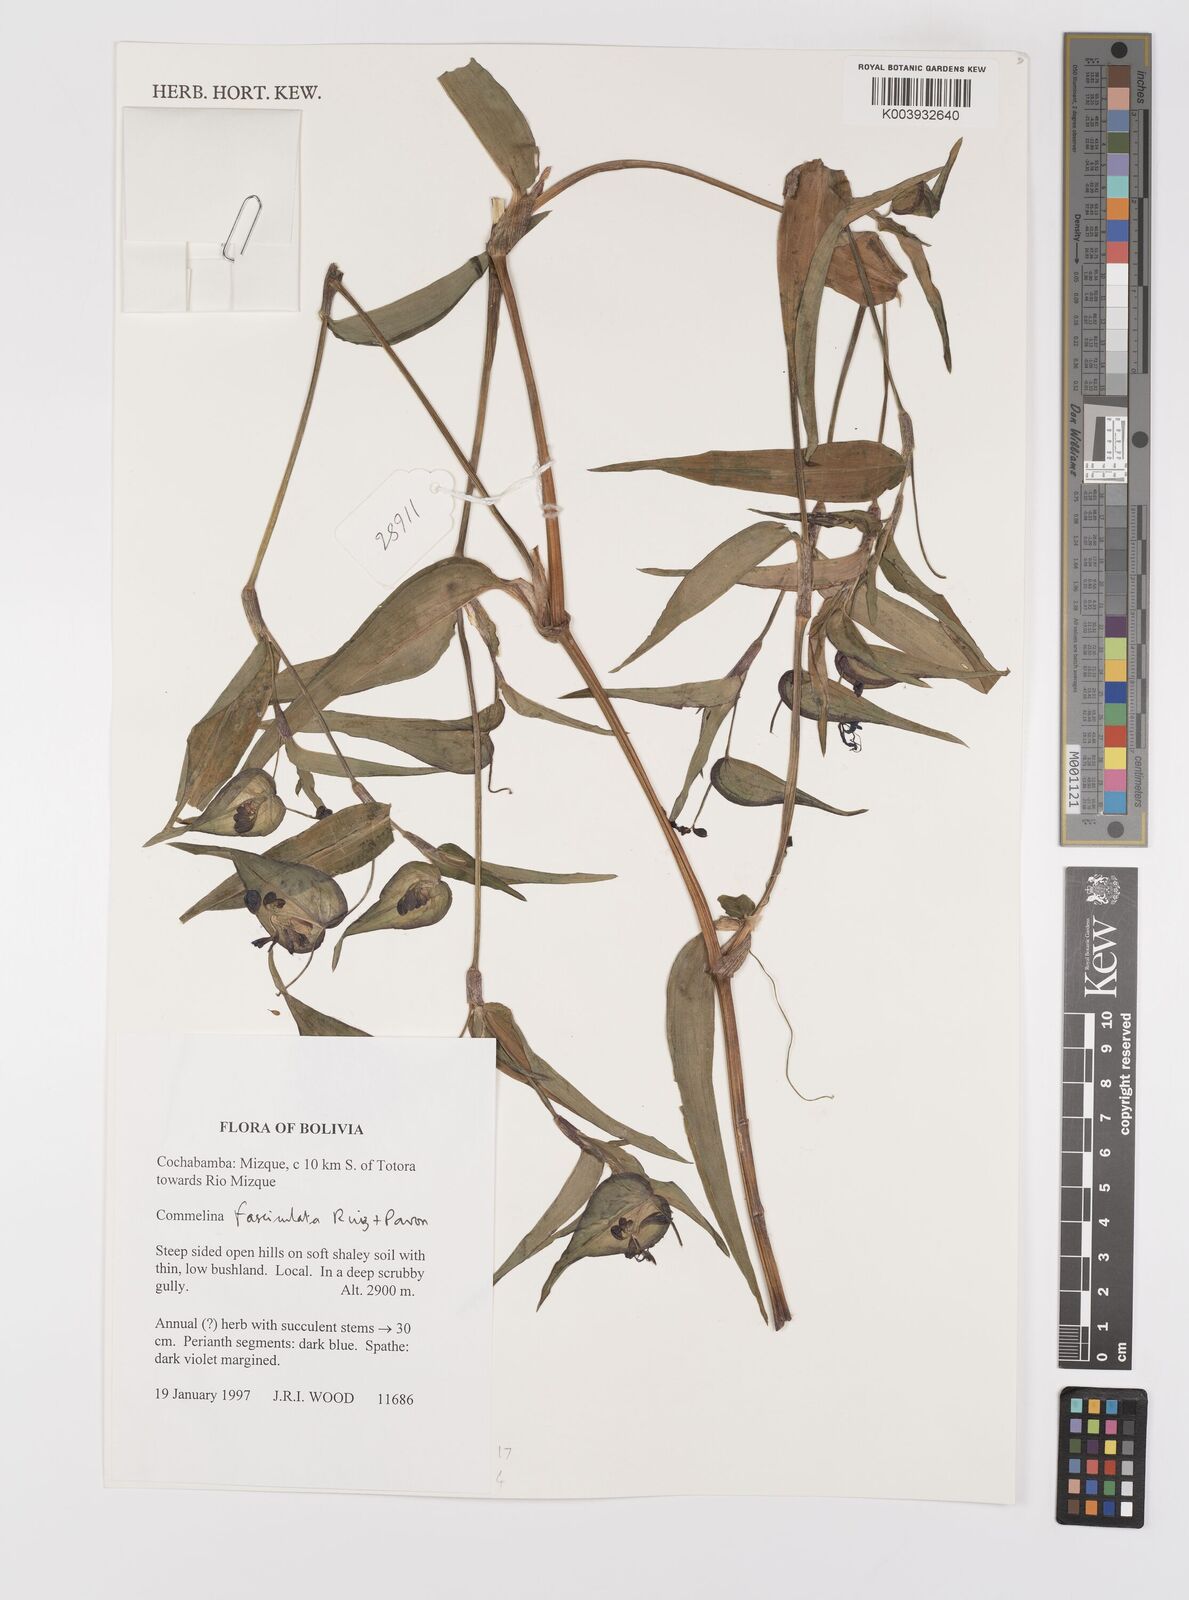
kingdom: Plantae
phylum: Tracheophyta
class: Liliopsida
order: Commelinales
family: Commelinaceae
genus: Commelina
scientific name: Commelina tuberosa
